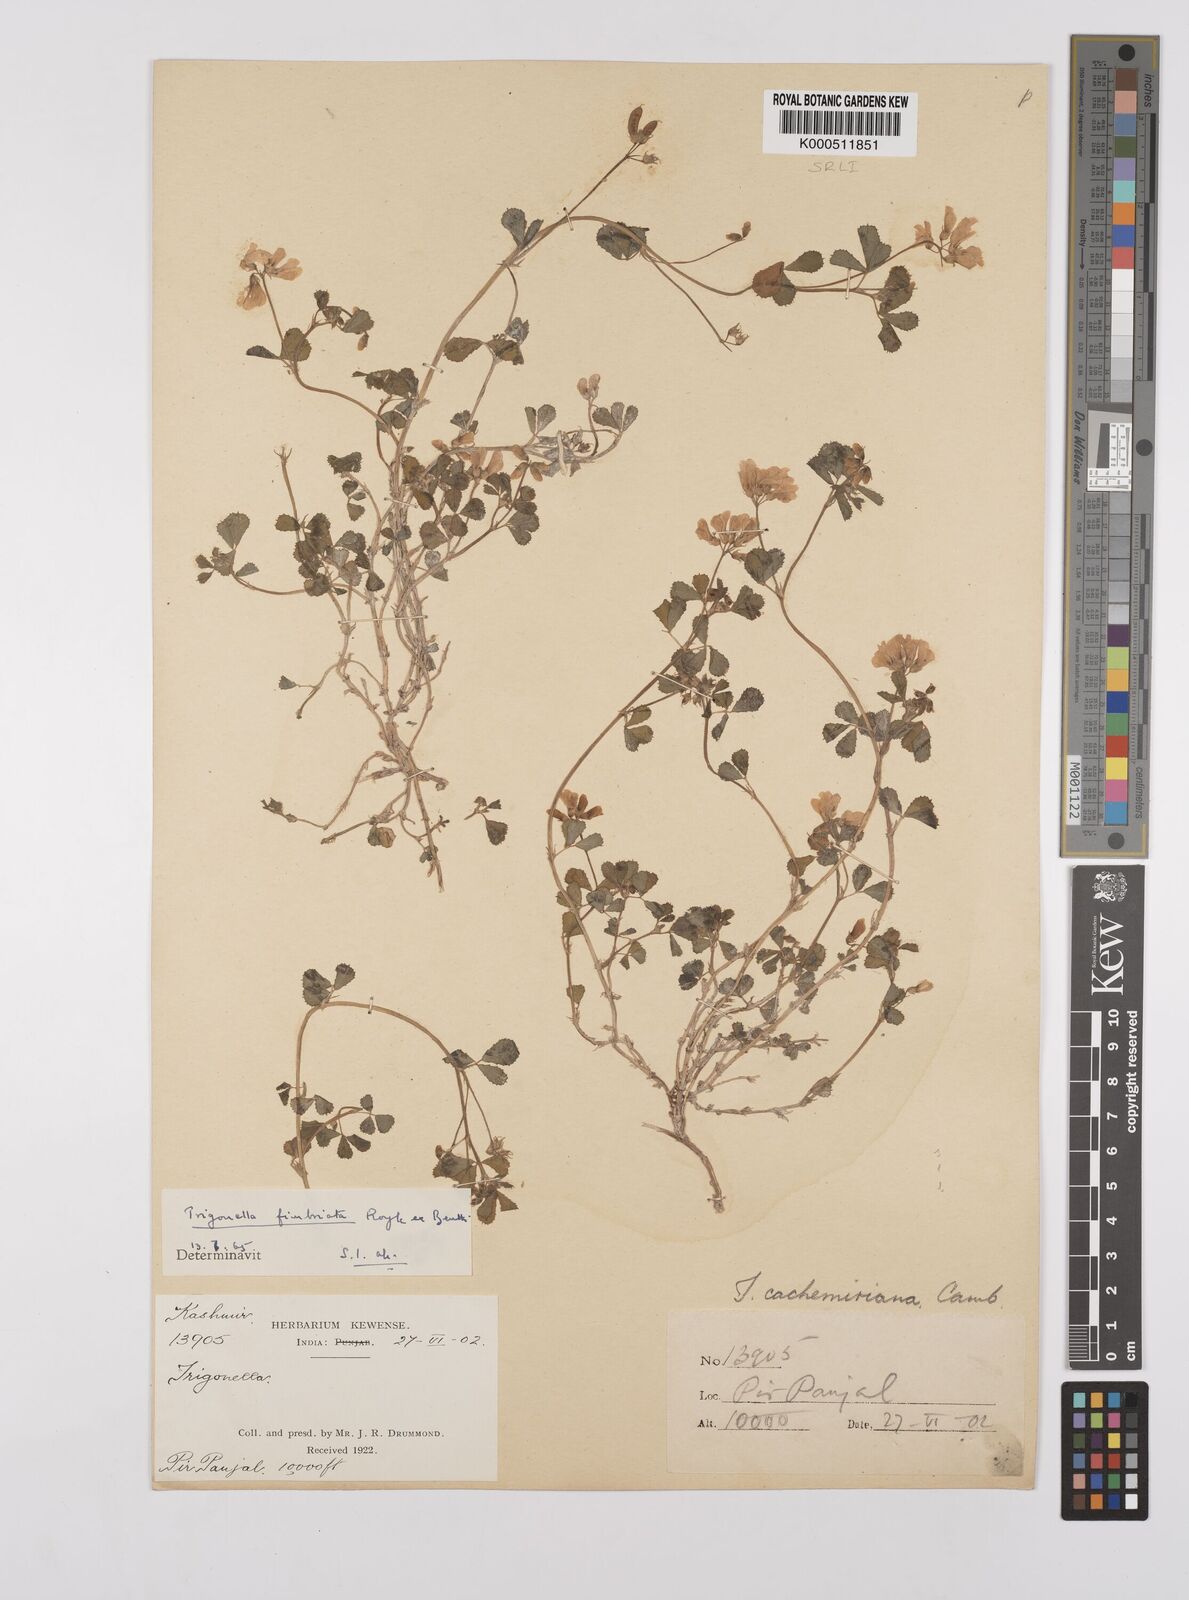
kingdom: Plantae
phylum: Tracheophyta
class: Magnoliopsida
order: Fabales
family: Fabaceae
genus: Trigonella
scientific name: Trigonella emodi
